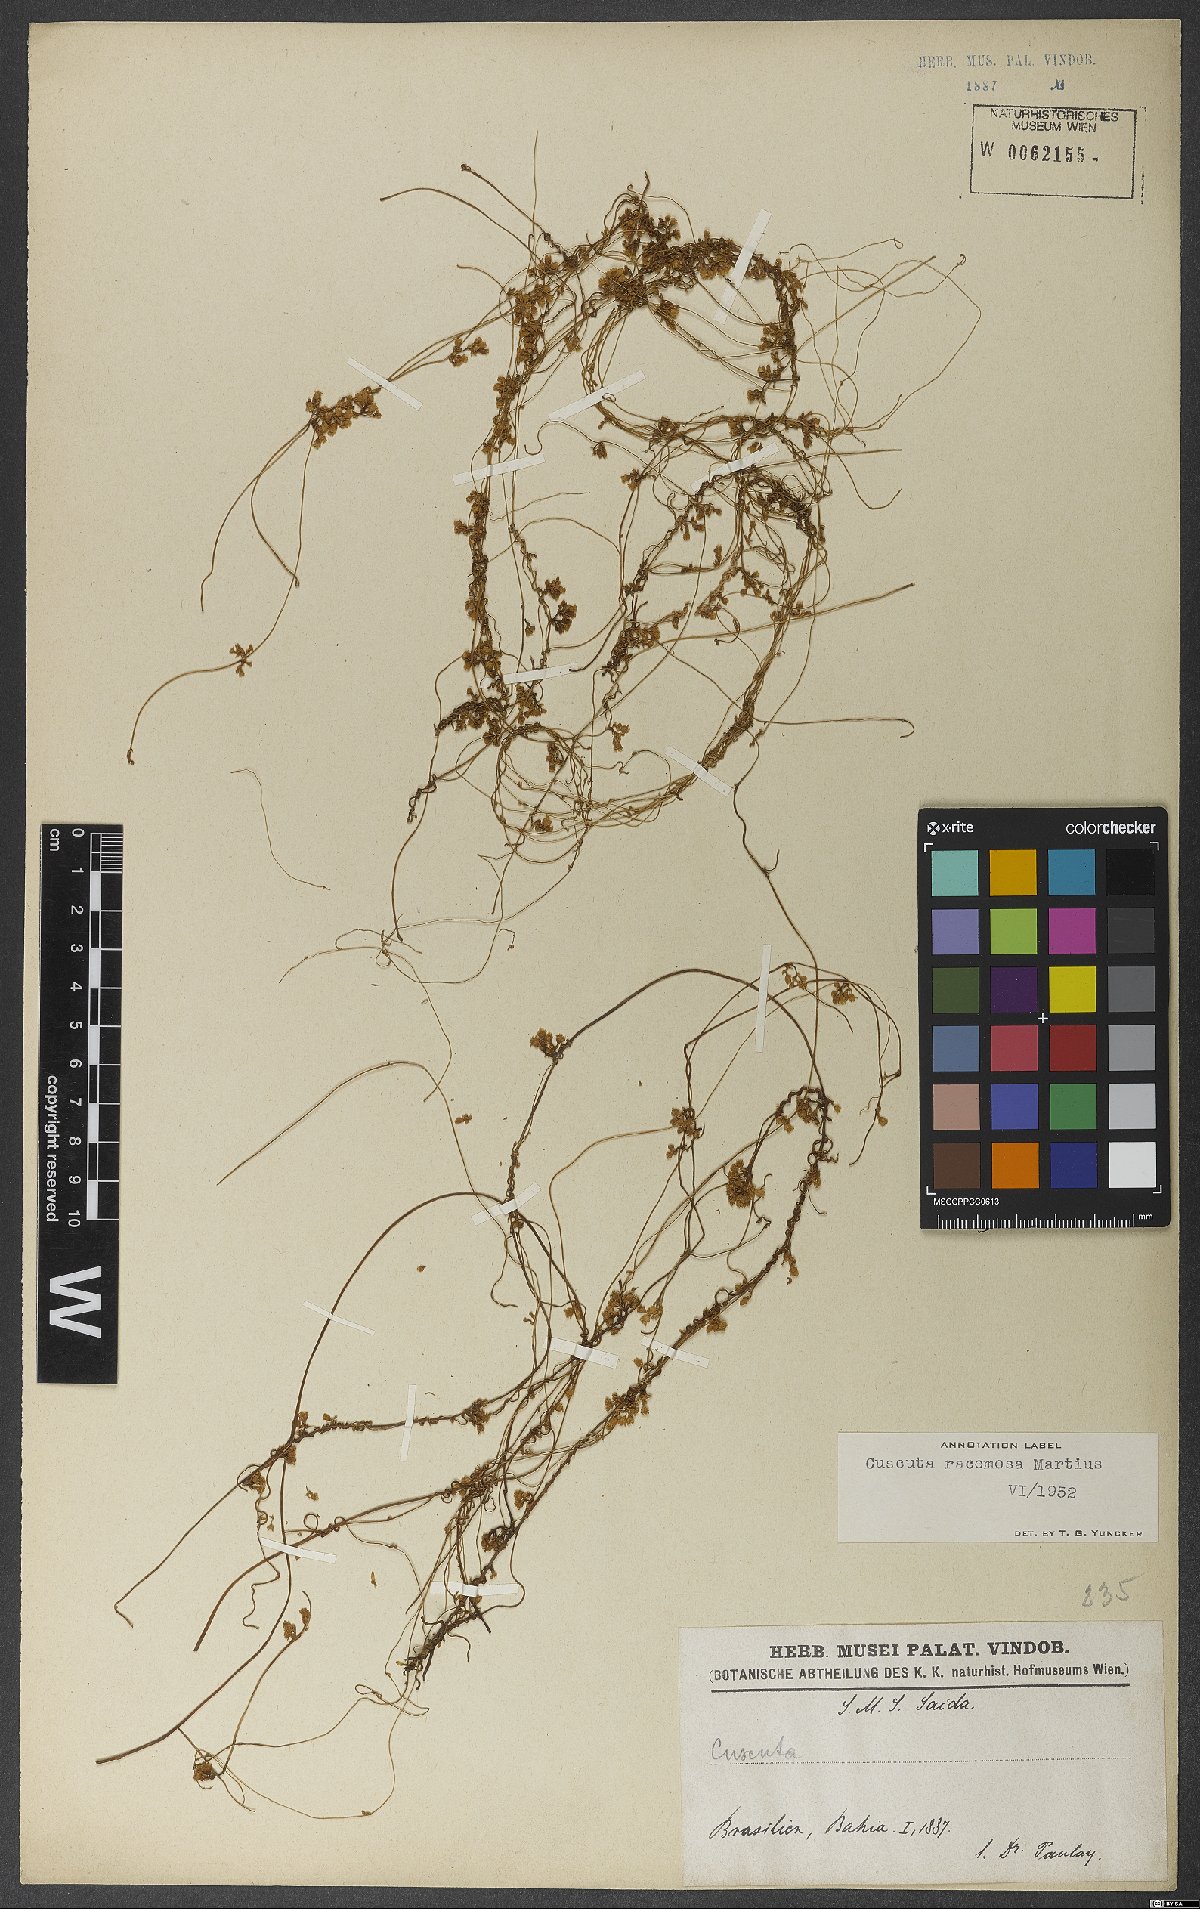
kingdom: Plantae
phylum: Tracheophyta
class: Magnoliopsida
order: Solanales
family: Convolvulaceae
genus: Cuscuta
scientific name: Cuscuta racemosa
